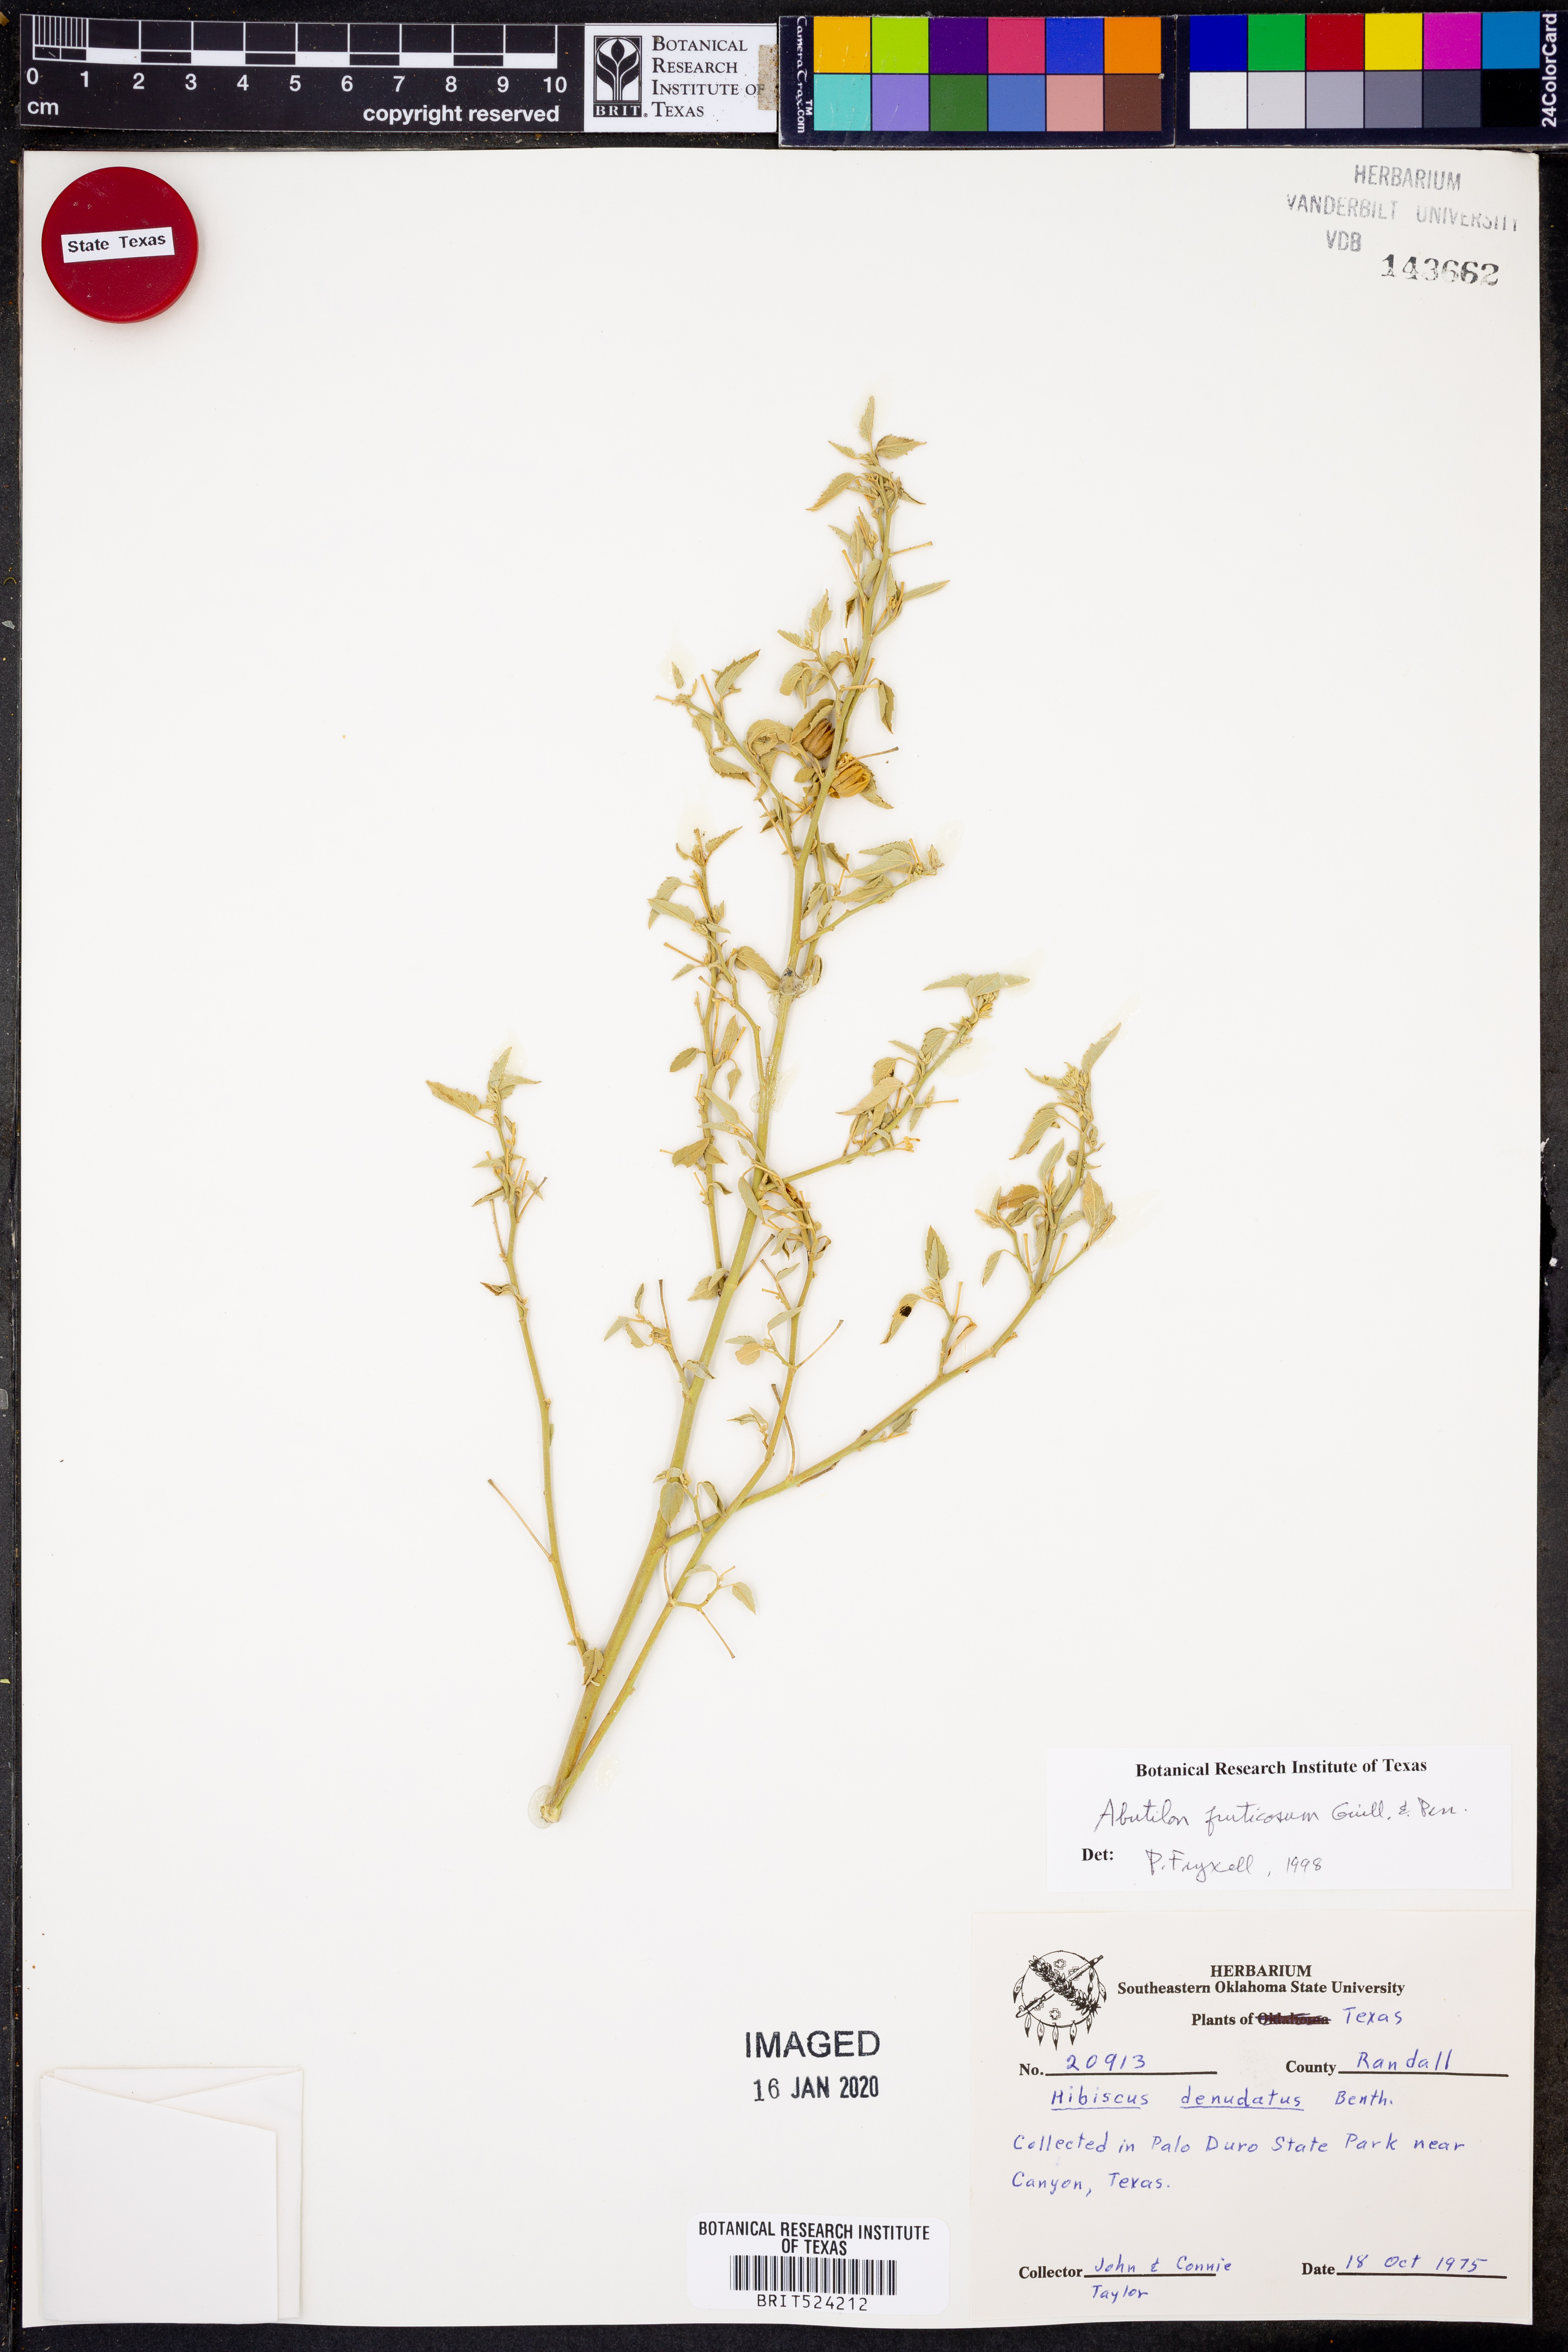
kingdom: Plantae
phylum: Tracheophyta
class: Magnoliopsida
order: Malvales
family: Malvaceae
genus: Abutilon
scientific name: Abutilon fruticosum
